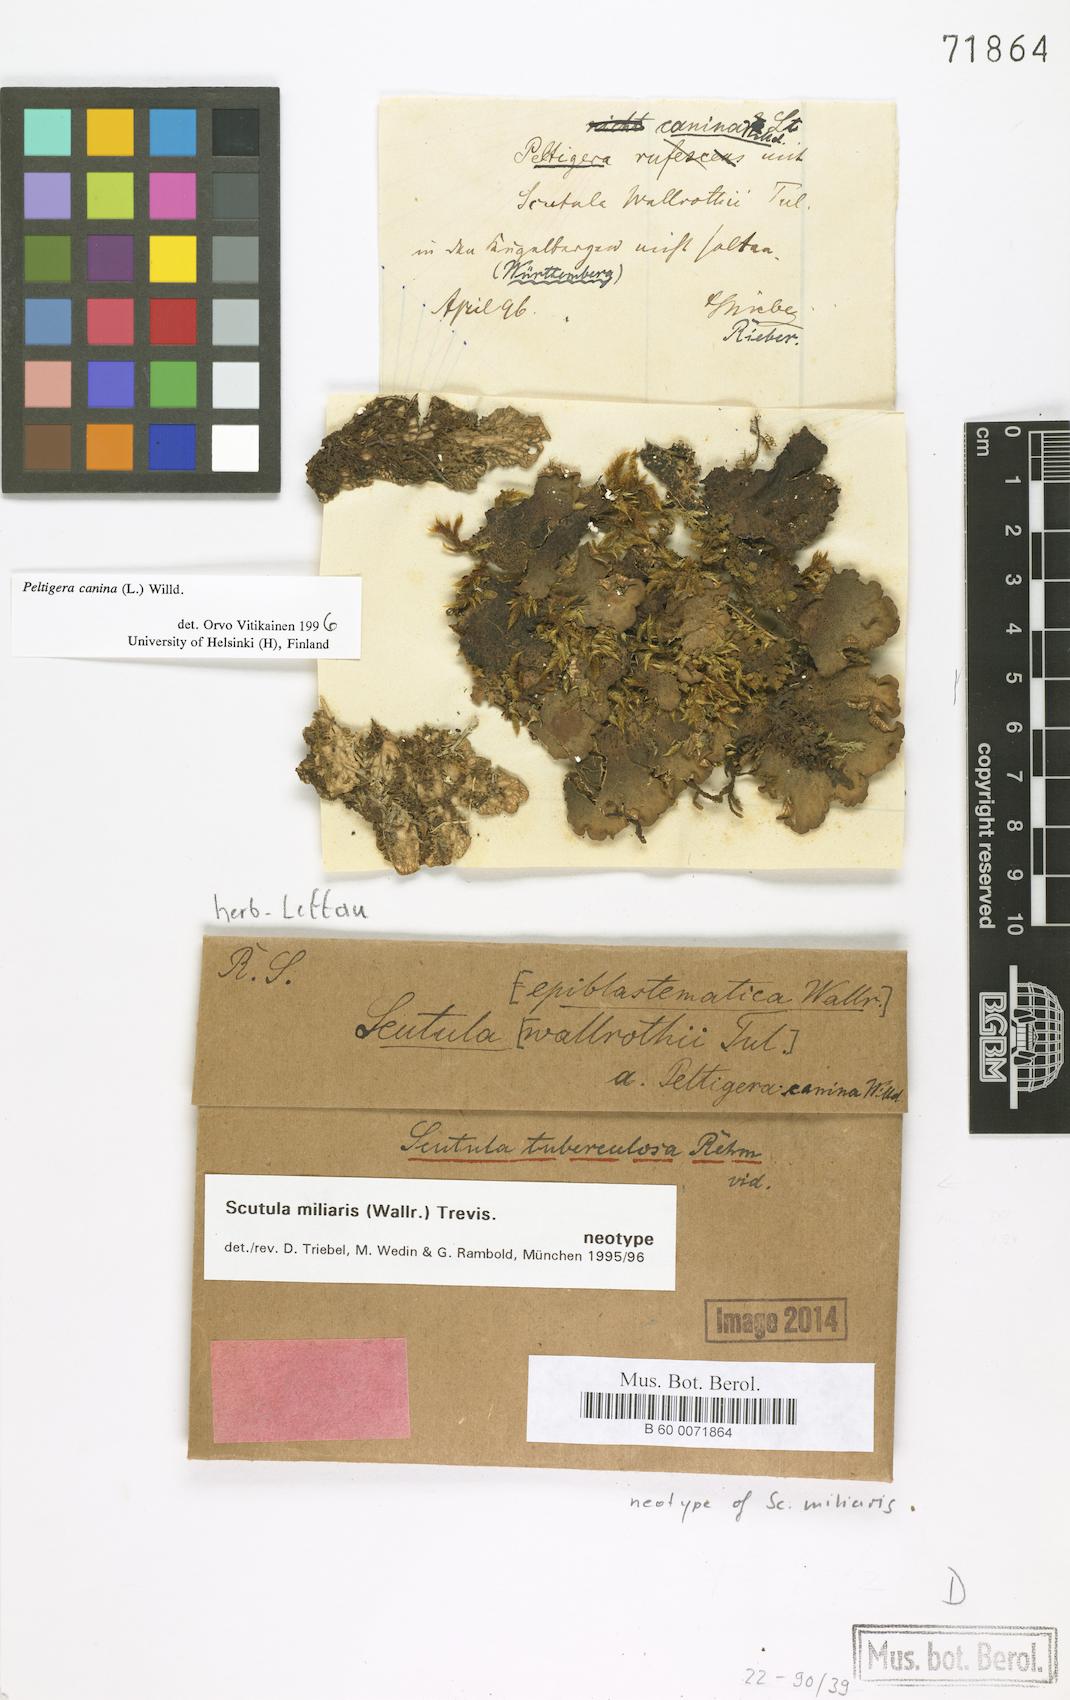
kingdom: Fungi
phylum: Ascomycota
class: Lecanoromycetes
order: Lecanorales
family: Byssolomataceae
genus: Scutula
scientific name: Scutula miliaris
